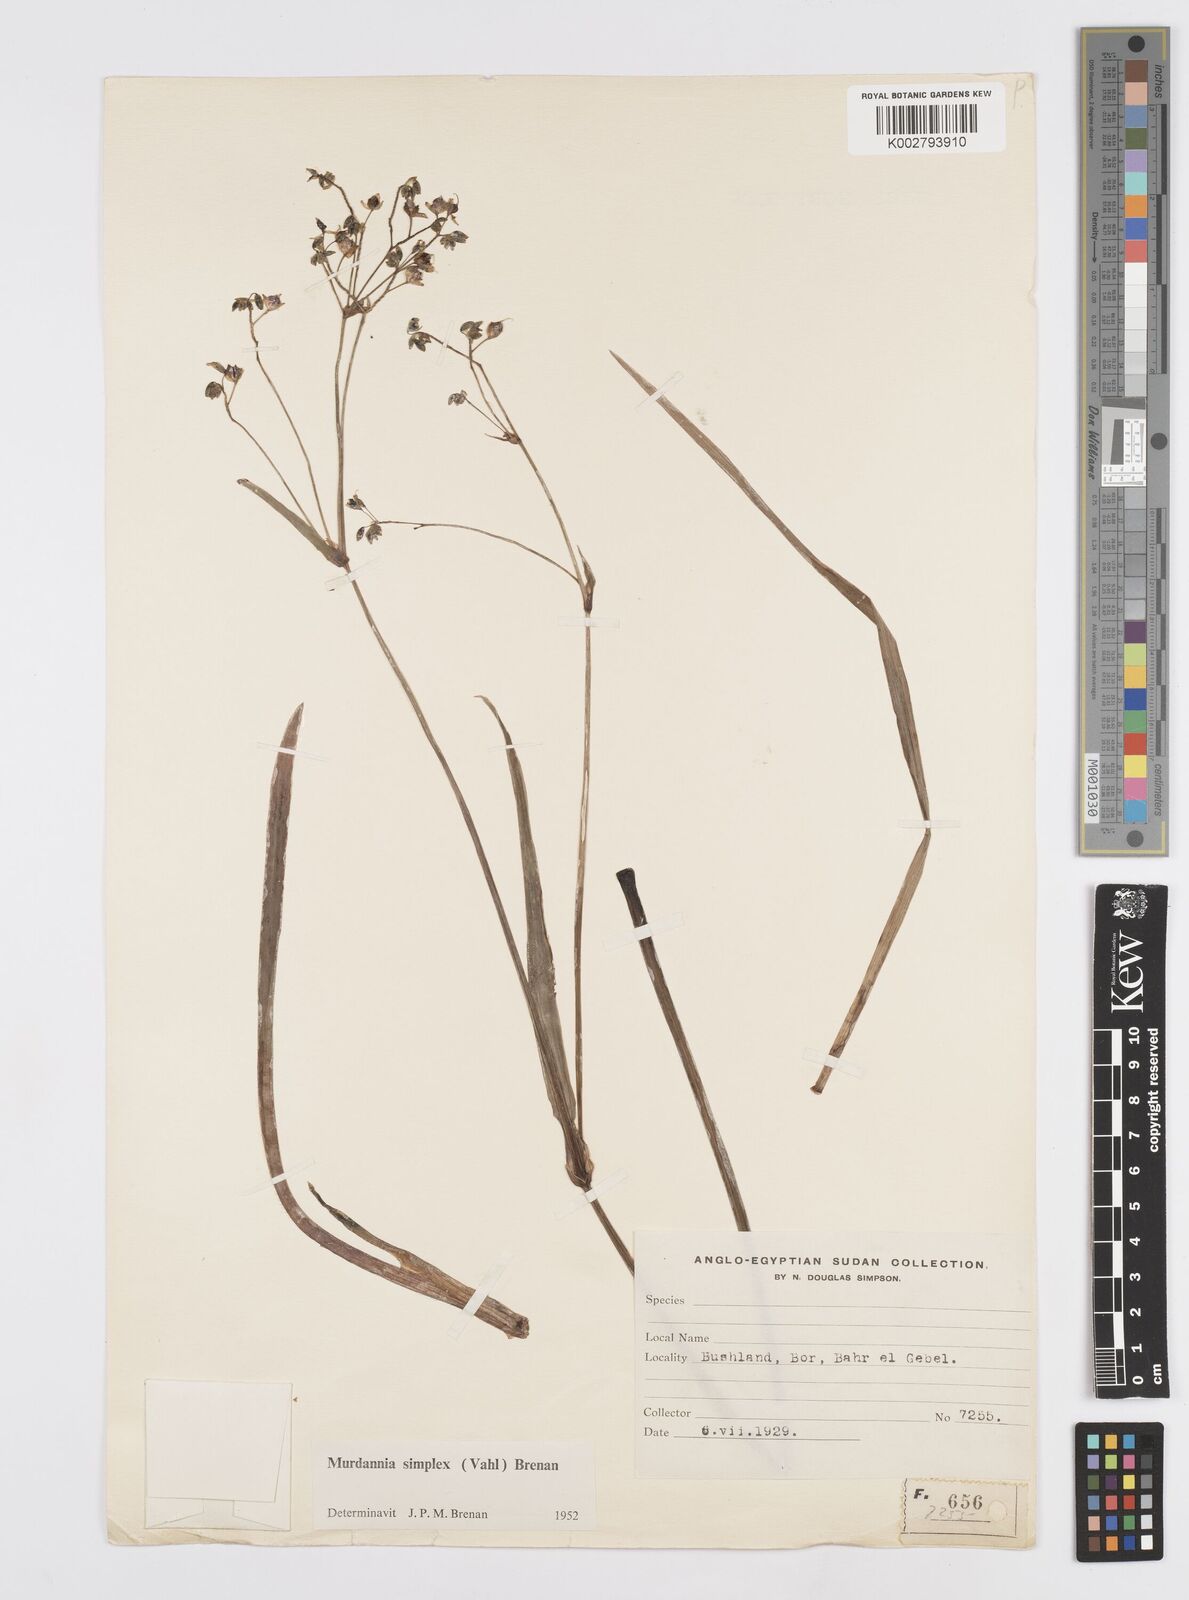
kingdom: Plantae
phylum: Tracheophyta
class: Liliopsida
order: Commelinales
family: Commelinaceae
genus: Murdannia
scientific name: Murdannia simplex
